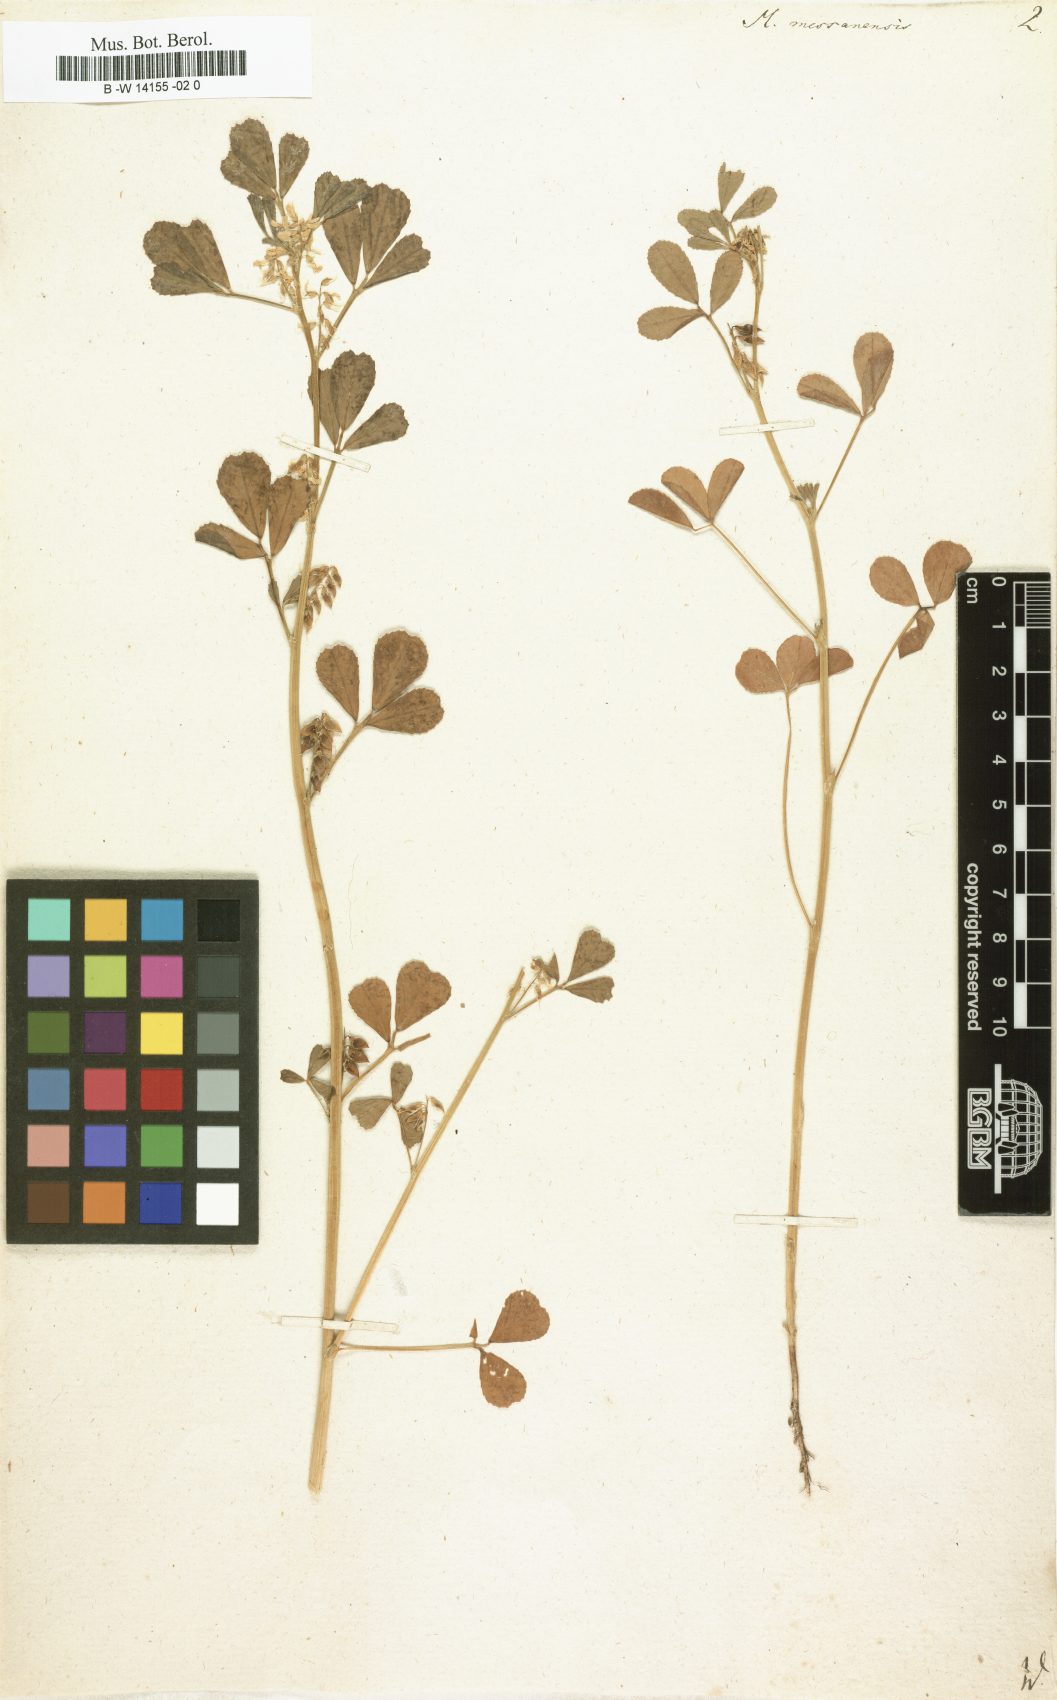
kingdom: Plantae
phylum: Tracheophyta
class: Magnoliopsida
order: Fabales
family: Fabaceae
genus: Melilotus
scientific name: Melilotus siculus
